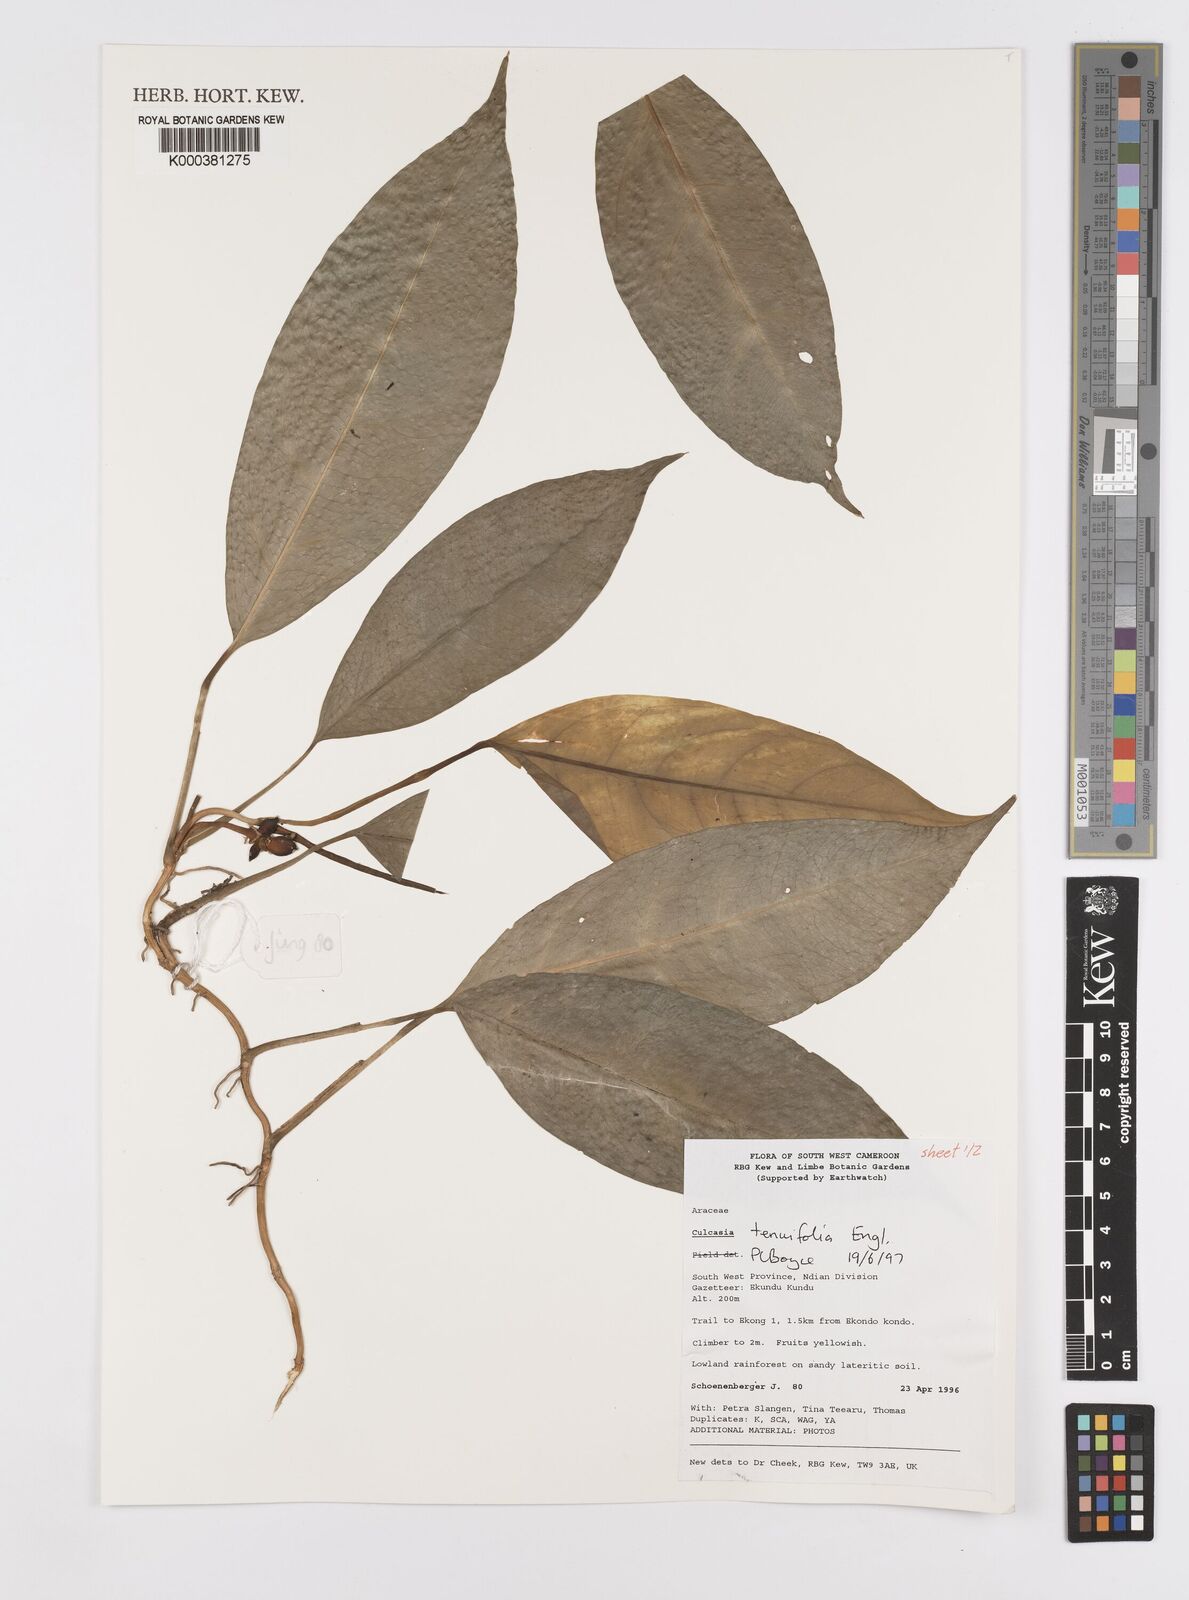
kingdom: Plantae
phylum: Tracheophyta
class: Liliopsida
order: Alismatales
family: Araceae
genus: Culcasia
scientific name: Culcasia tenuifolia
